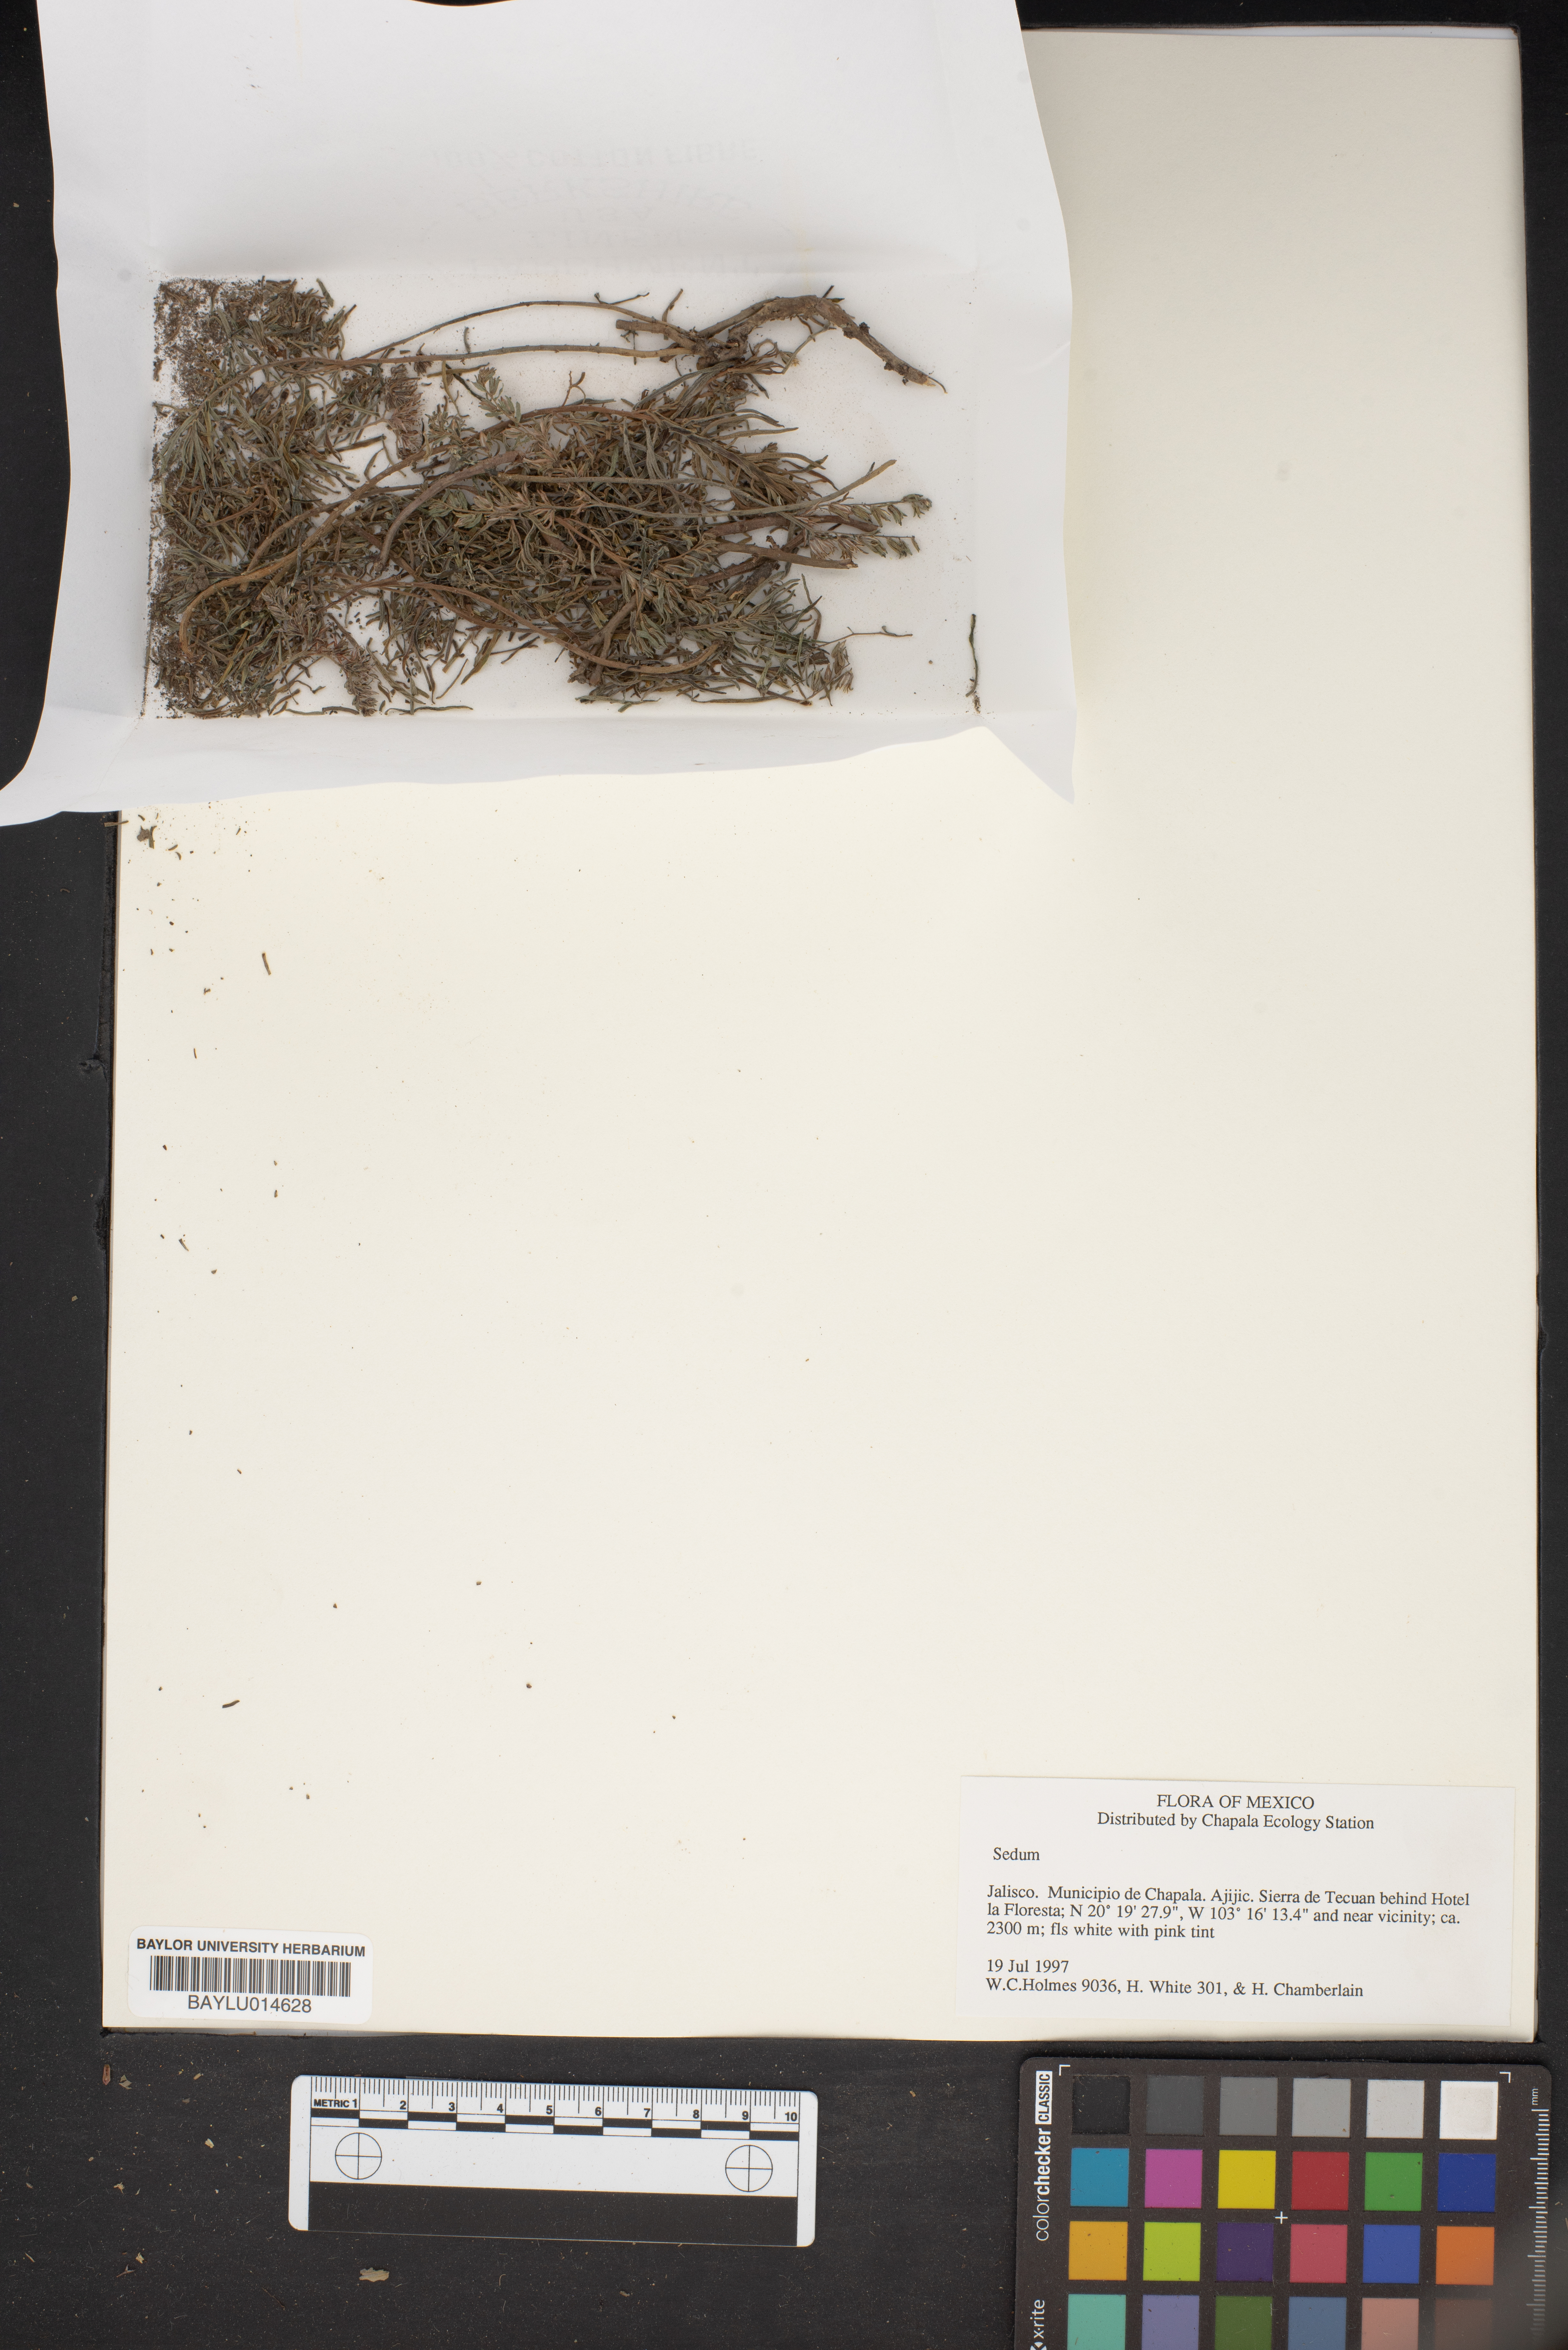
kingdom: Plantae
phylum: Tracheophyta
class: Magnoliopsida
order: Saxifragales
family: Crassulaceae
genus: Sedum
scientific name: Sedum
